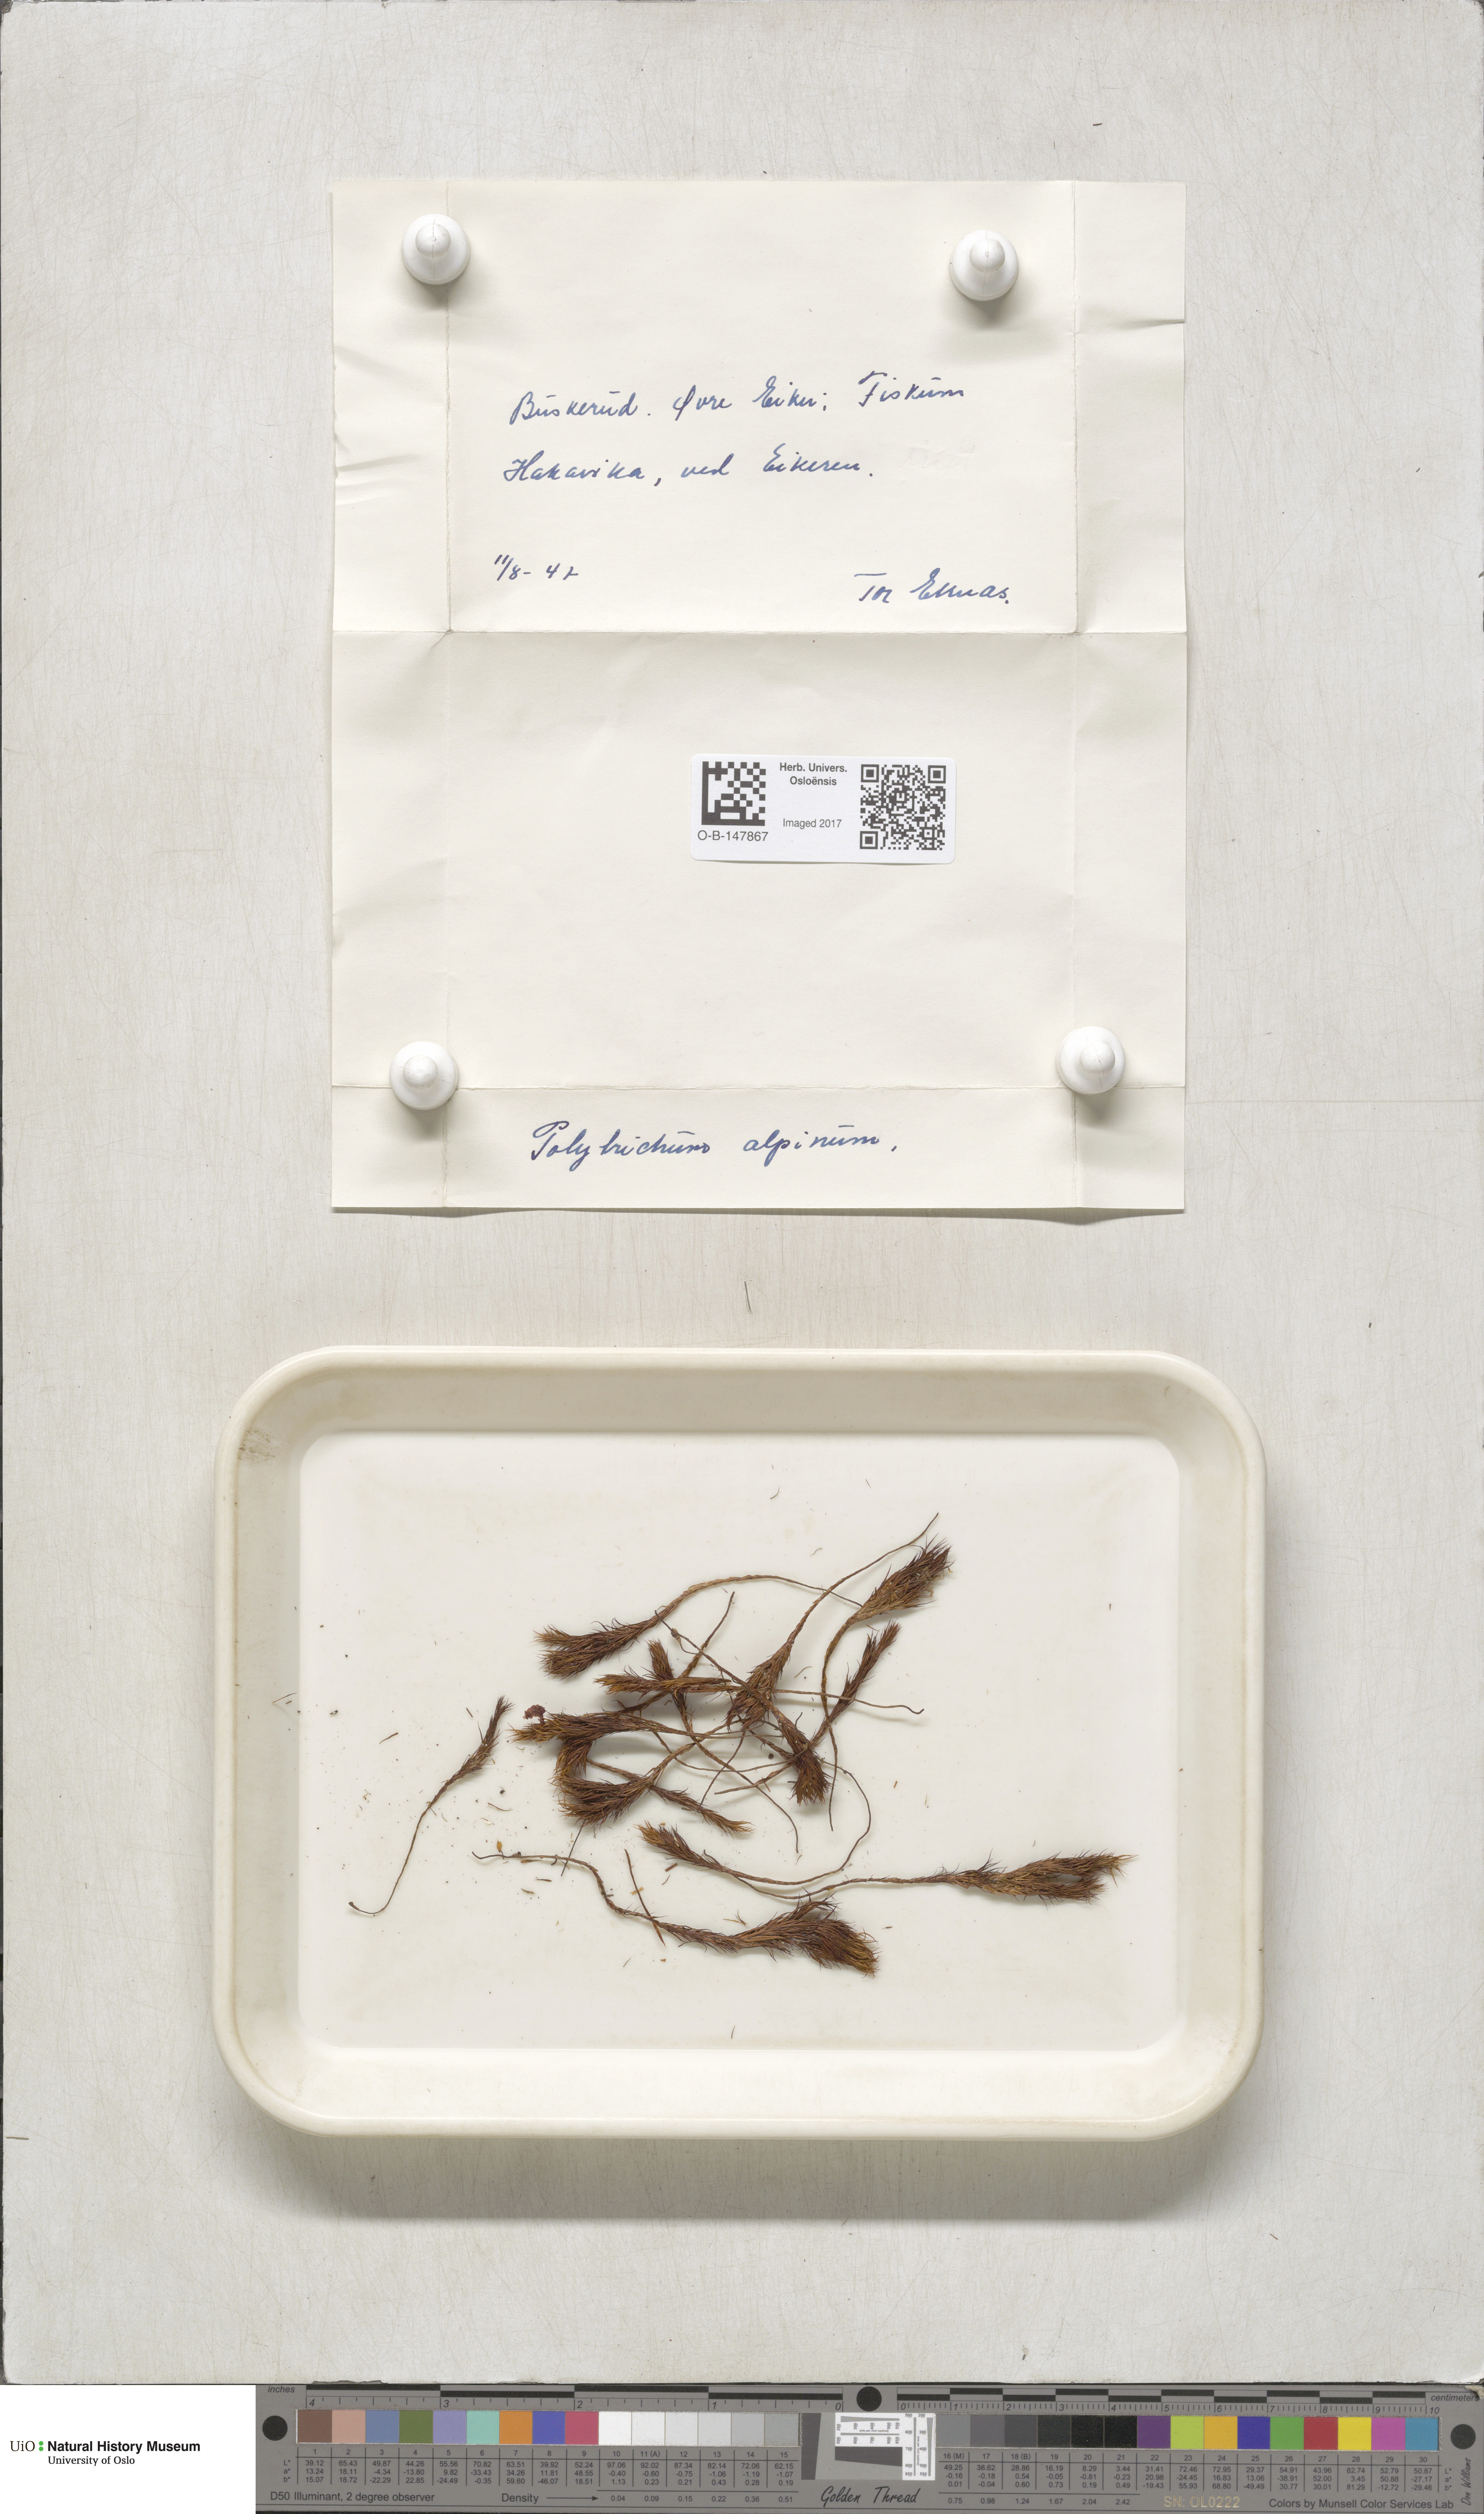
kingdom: Plantae
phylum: Bryophyta
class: Polytrichopsida
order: Polytrichales
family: Polytrichaceae
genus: Polytrichastrum
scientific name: Polytrichastrum alpinum
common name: Alpine haircap
